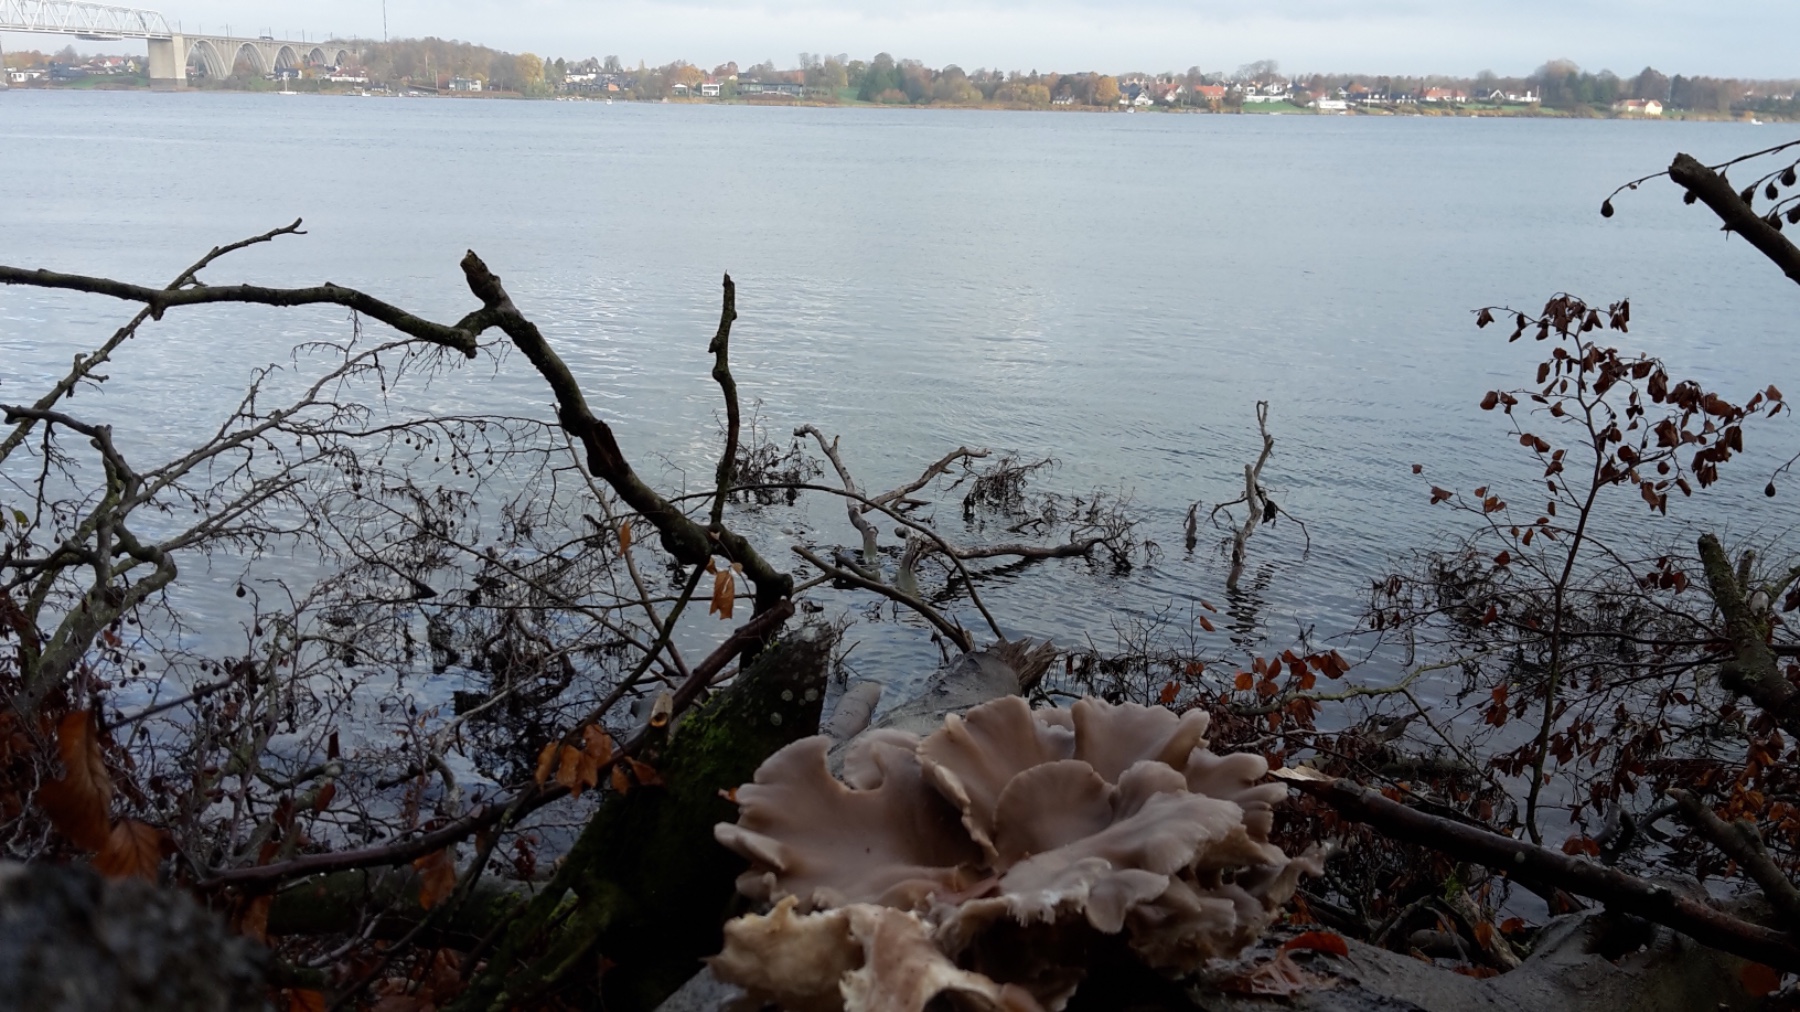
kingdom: Fungi
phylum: Basidiomycota
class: Agaricomycetes
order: Agaricales
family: Pleurotaceae
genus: Pleurotus
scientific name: Pleurotus ostreatus
